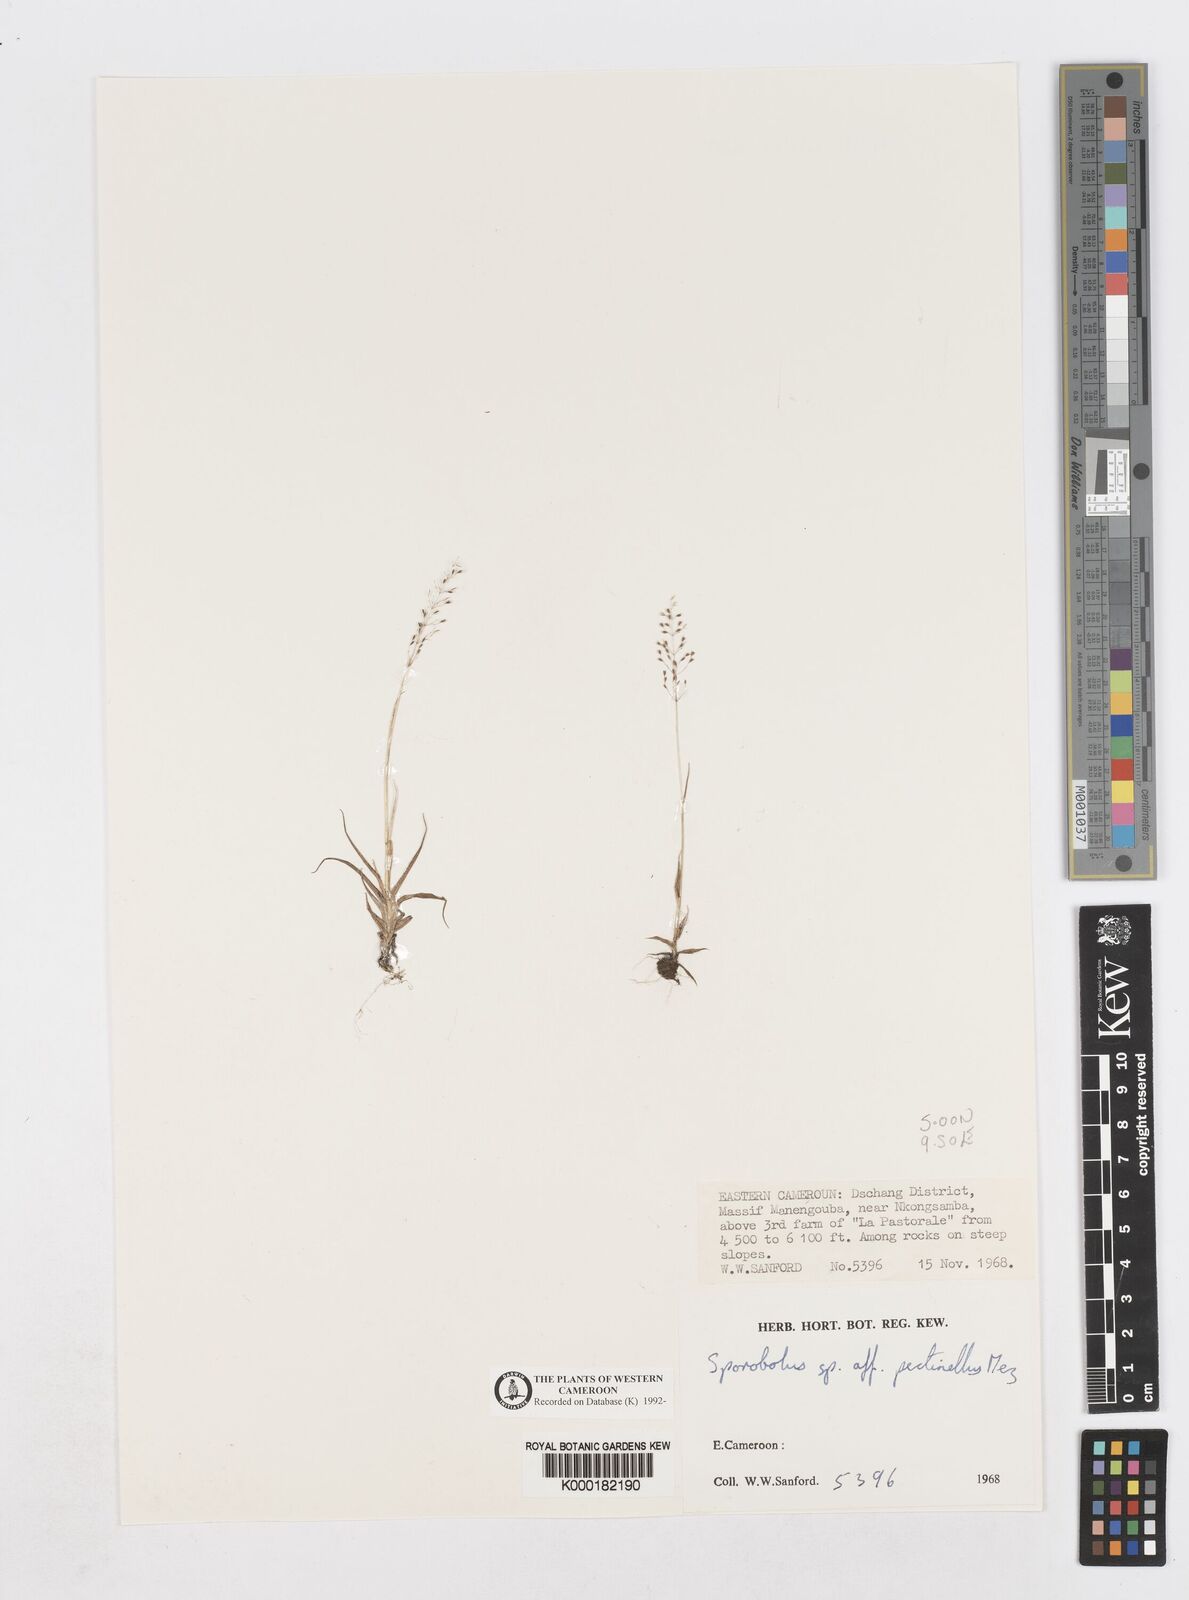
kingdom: Plantae
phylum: Tracheophyta
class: Liliopsida
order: Poales
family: Poaceae
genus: Sporobolus
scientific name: Sporobolus paniculatus
